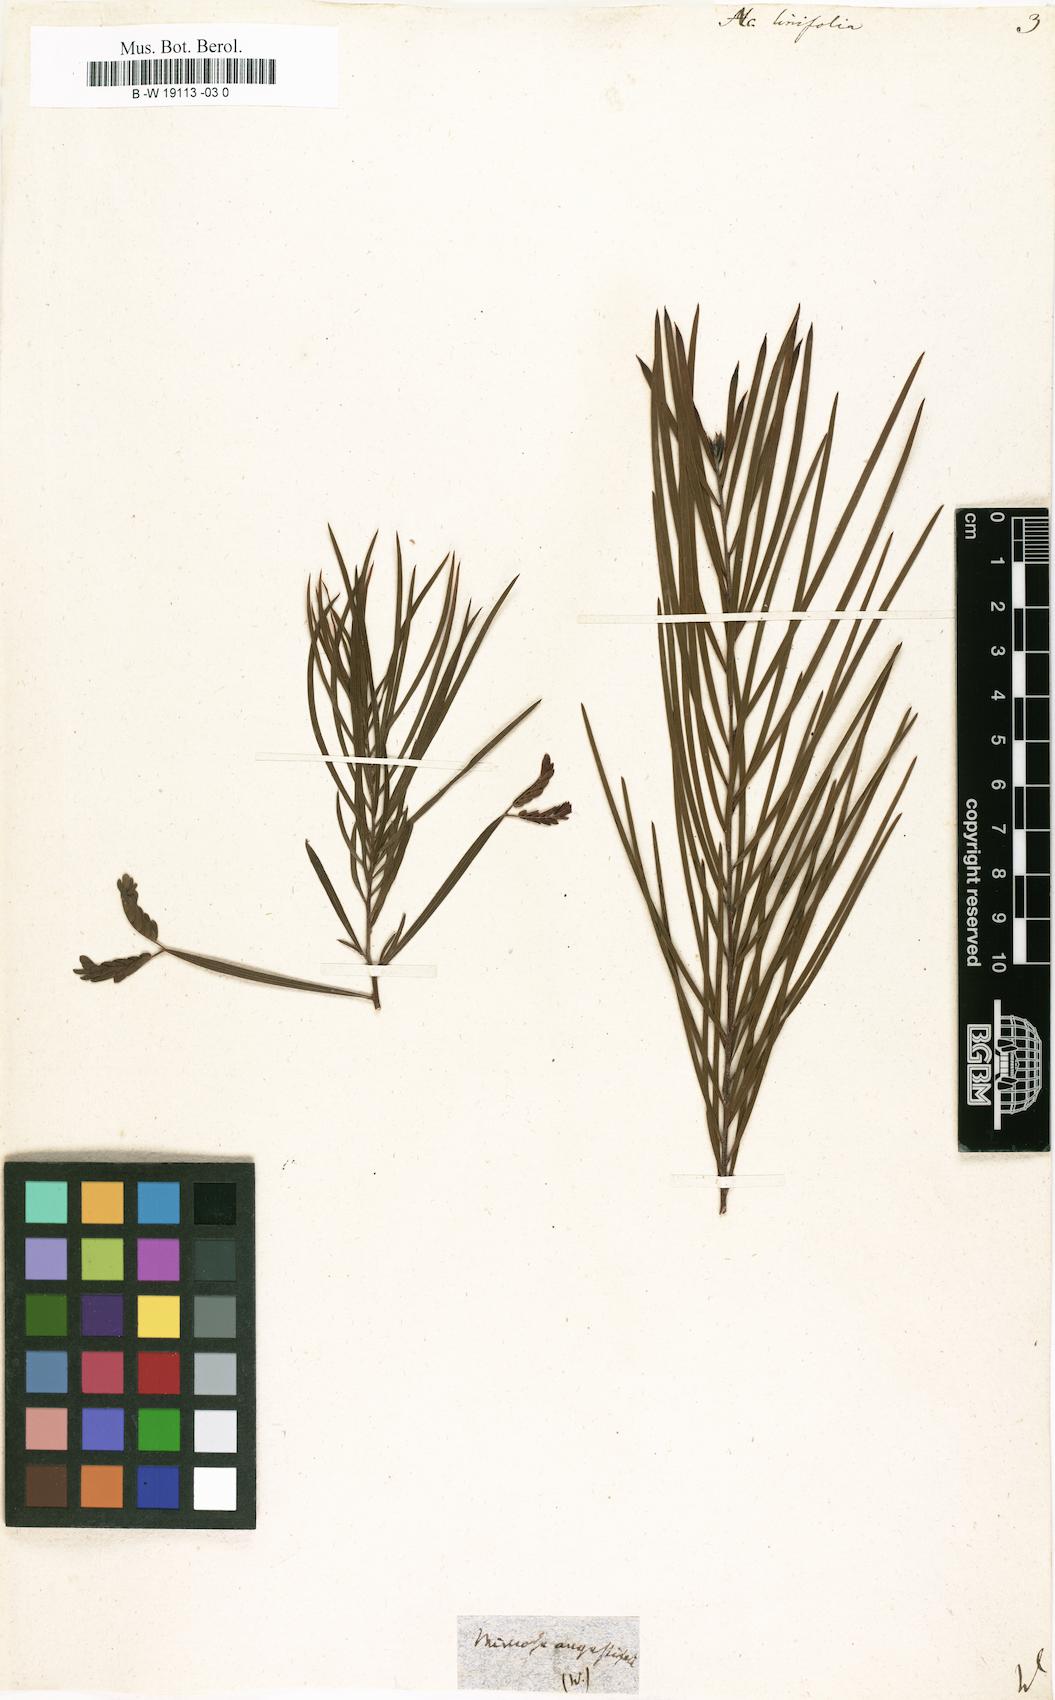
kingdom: Plantae
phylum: Tracheophyta
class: Magnoliopsida
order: Fabales
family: Fabaceae
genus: Acacia
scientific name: Acacia linifolia
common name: White wattle
